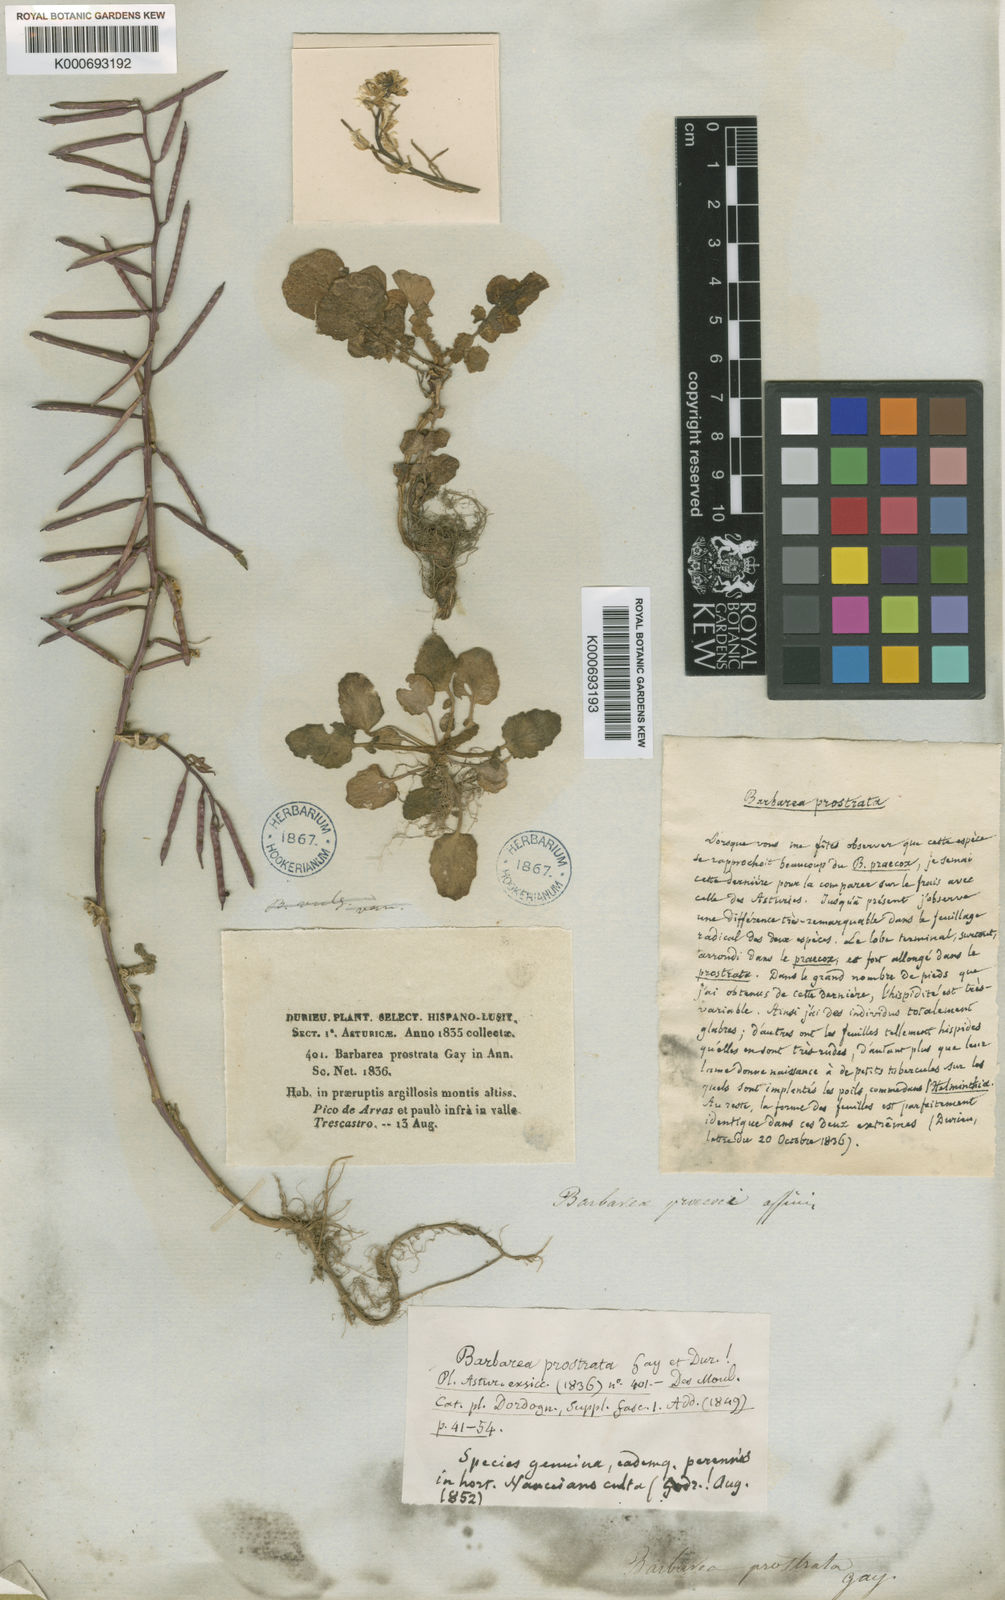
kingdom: Plantae
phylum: Tracheophyta
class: Magnoliopsida
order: Brassicales
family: Brassicaceae
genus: Barbarea
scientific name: Barbarea sicula
